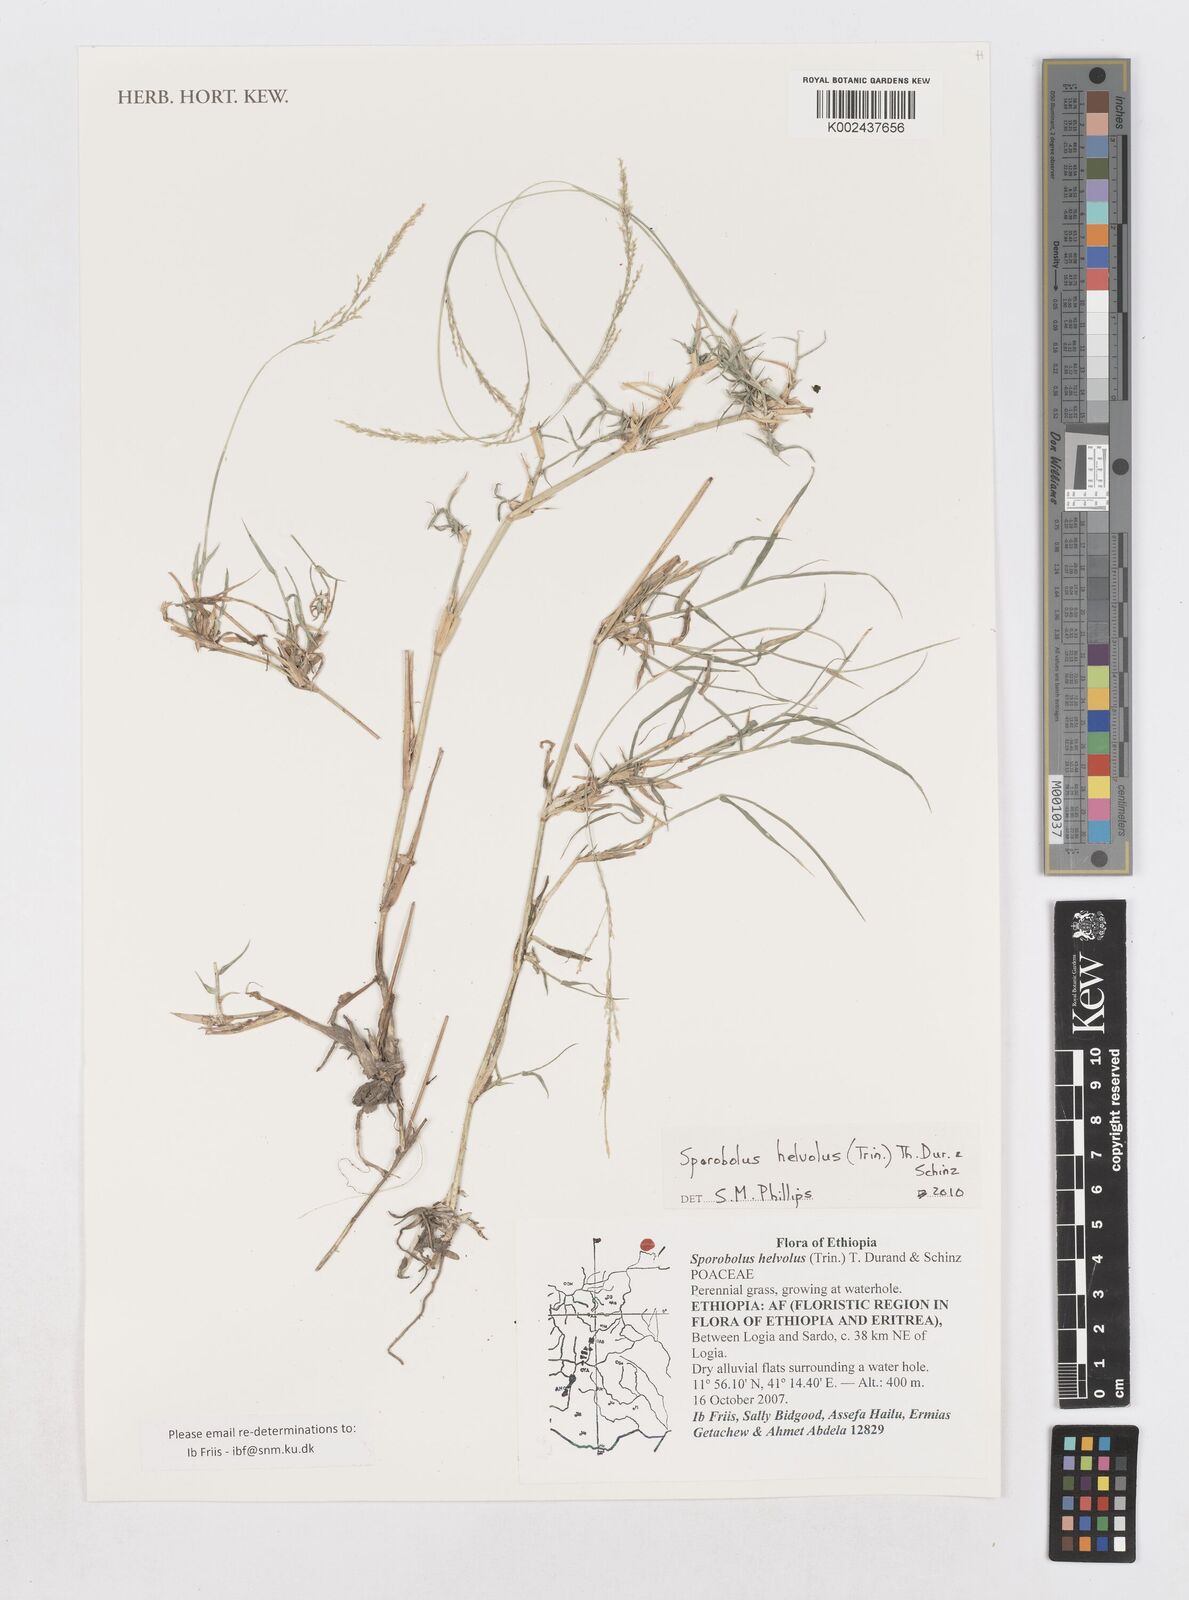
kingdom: Plantae
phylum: Tracheophyta
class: Liliopsida
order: Poales
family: Poaceae
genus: Sporobolus
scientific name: Sporobolus helvolus
